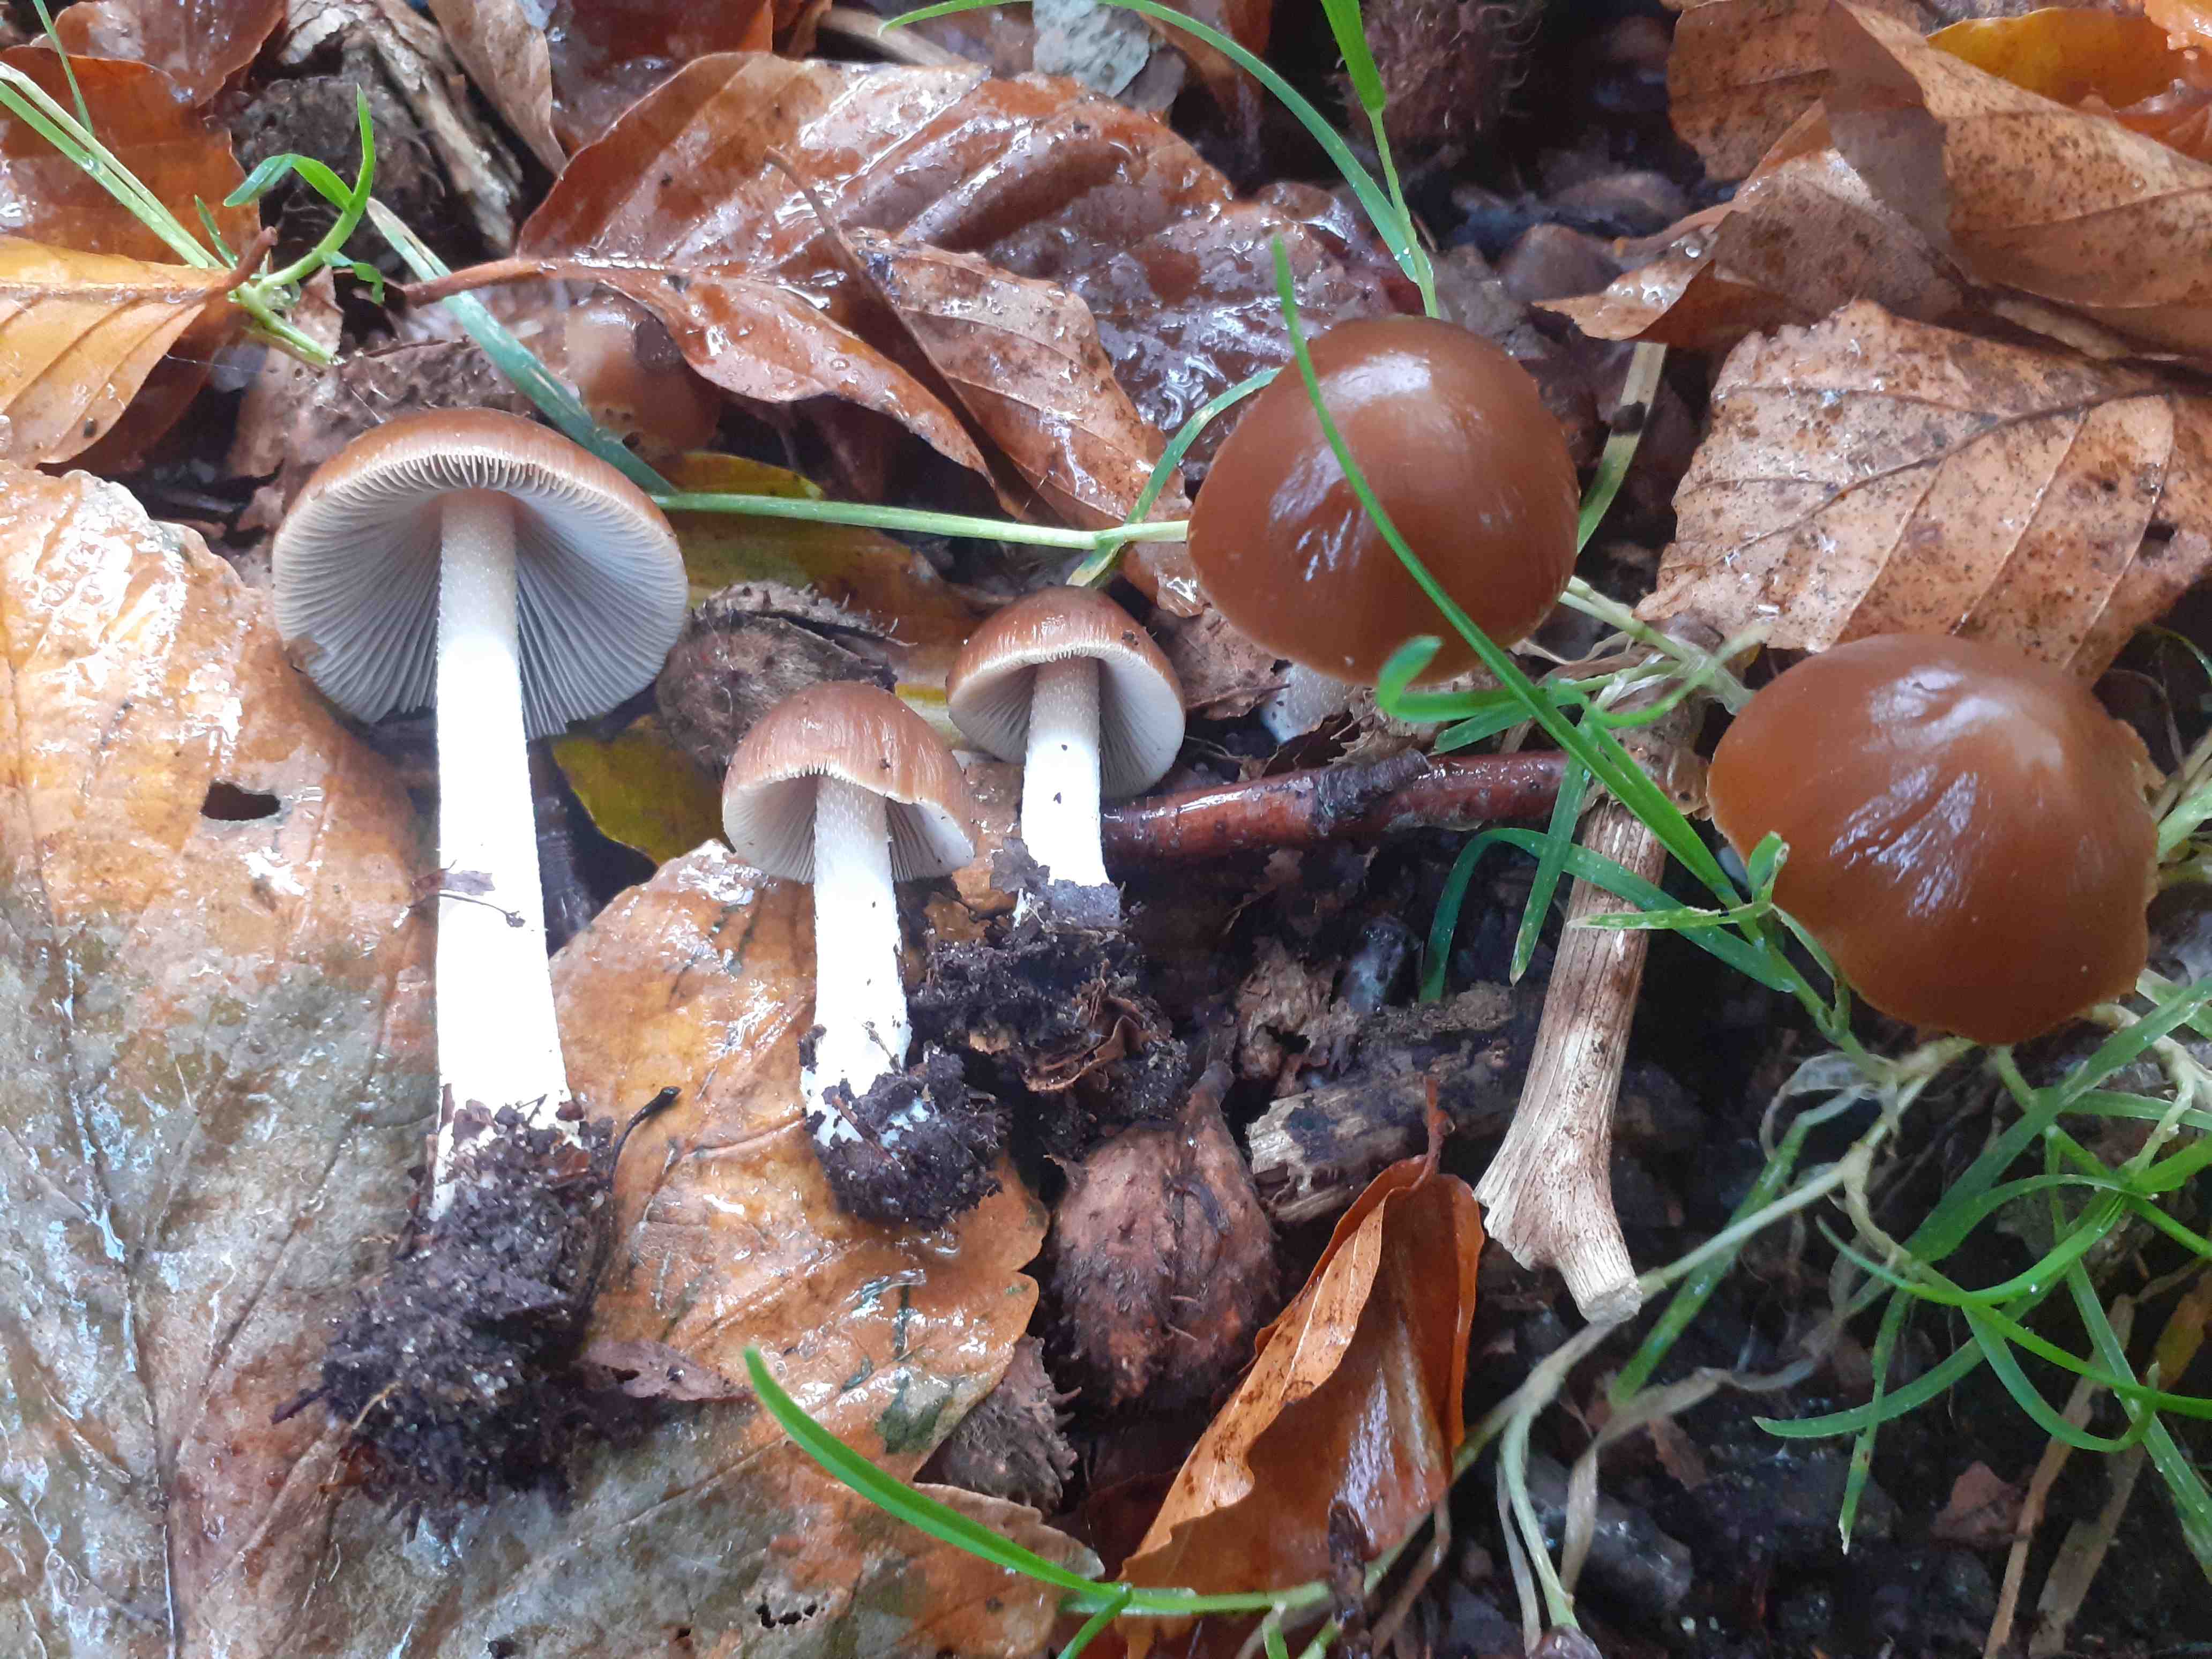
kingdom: Fungi
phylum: Basidiomycota
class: Agaricomycetes
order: Agaricales
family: Psathyrellaceae
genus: Psathyrella
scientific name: Psathyrella spadiceogrisea
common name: gråbrun mørkhat
